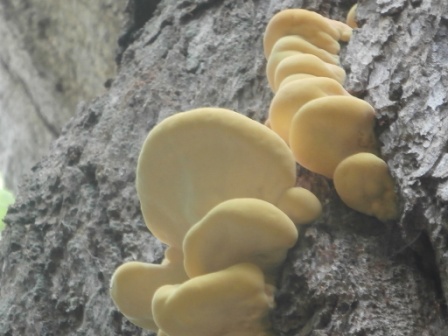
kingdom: Fungi
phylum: Basidiomycota
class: Agaricomycetes
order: Polyporales
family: Laetiporaceae
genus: Laetiporus
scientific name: Laetiporus sulphureus
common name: svovlporesvamp
